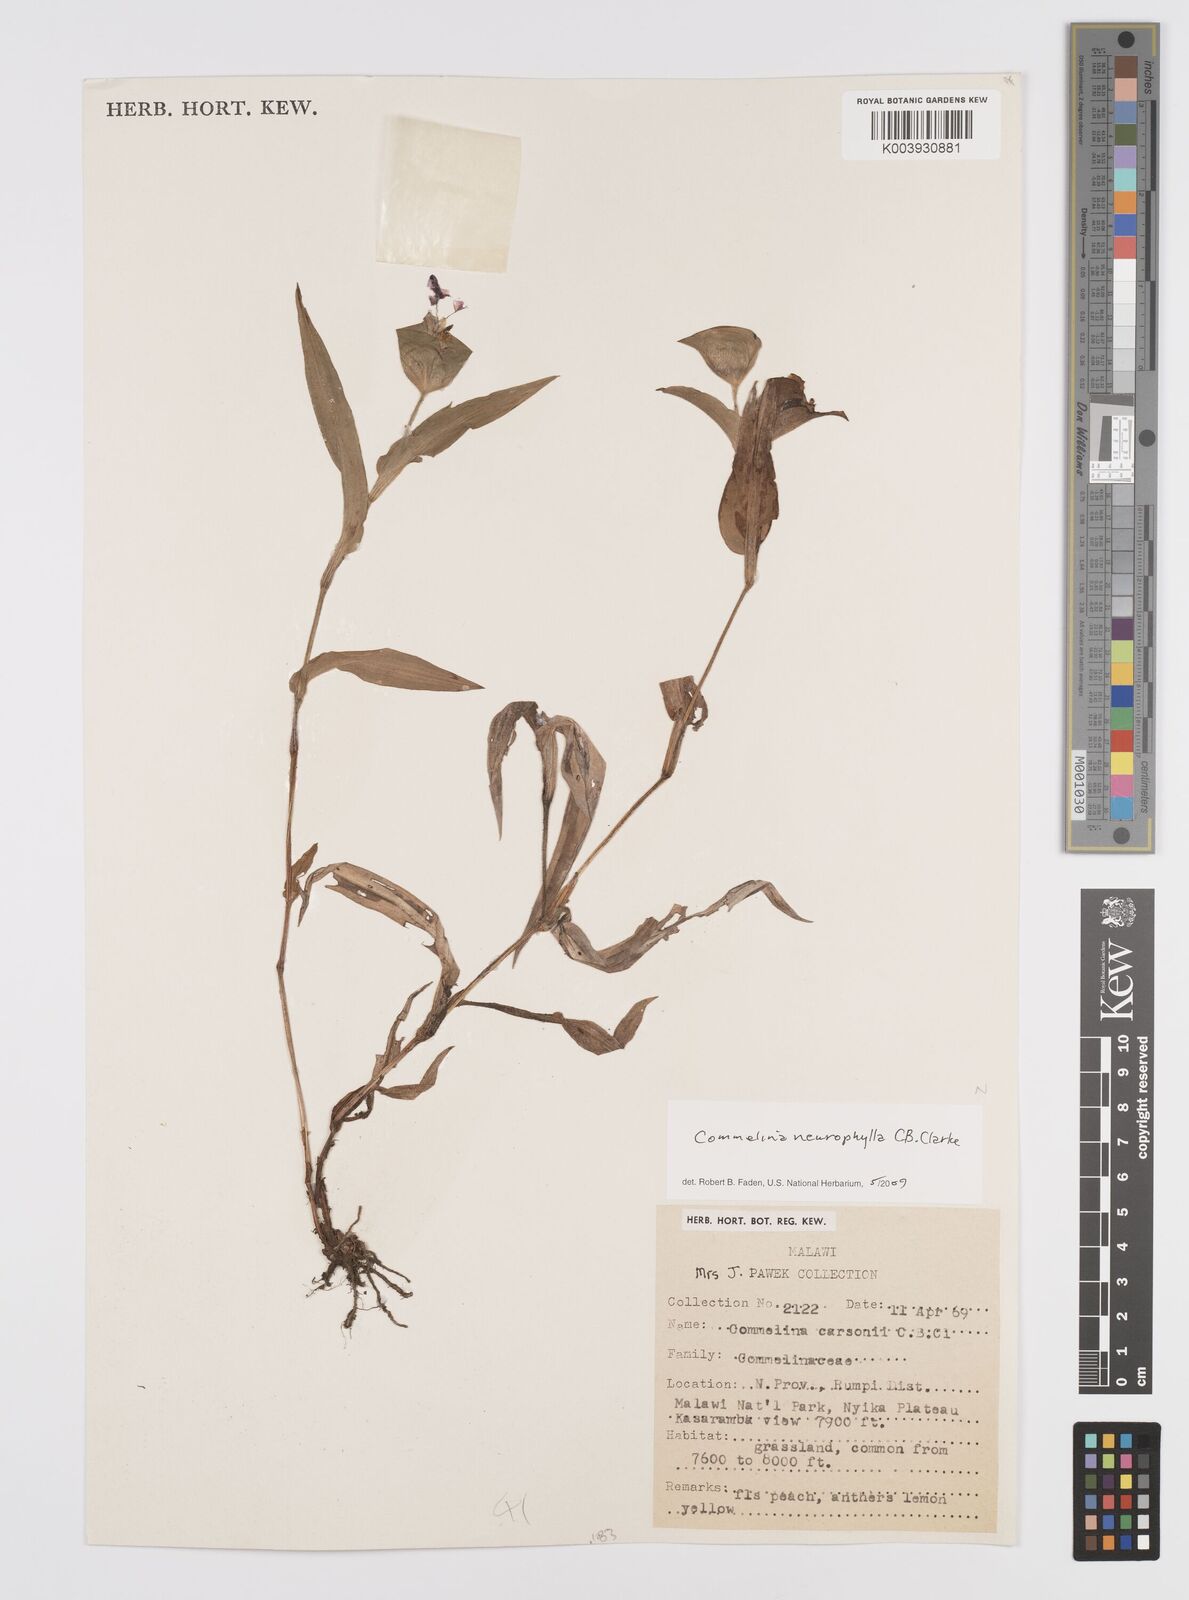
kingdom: Plantae
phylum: Tracheophyta
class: Liliopsida
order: Commelinales
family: Commelinaceae
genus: Commelina
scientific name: Commelina neurophylla
